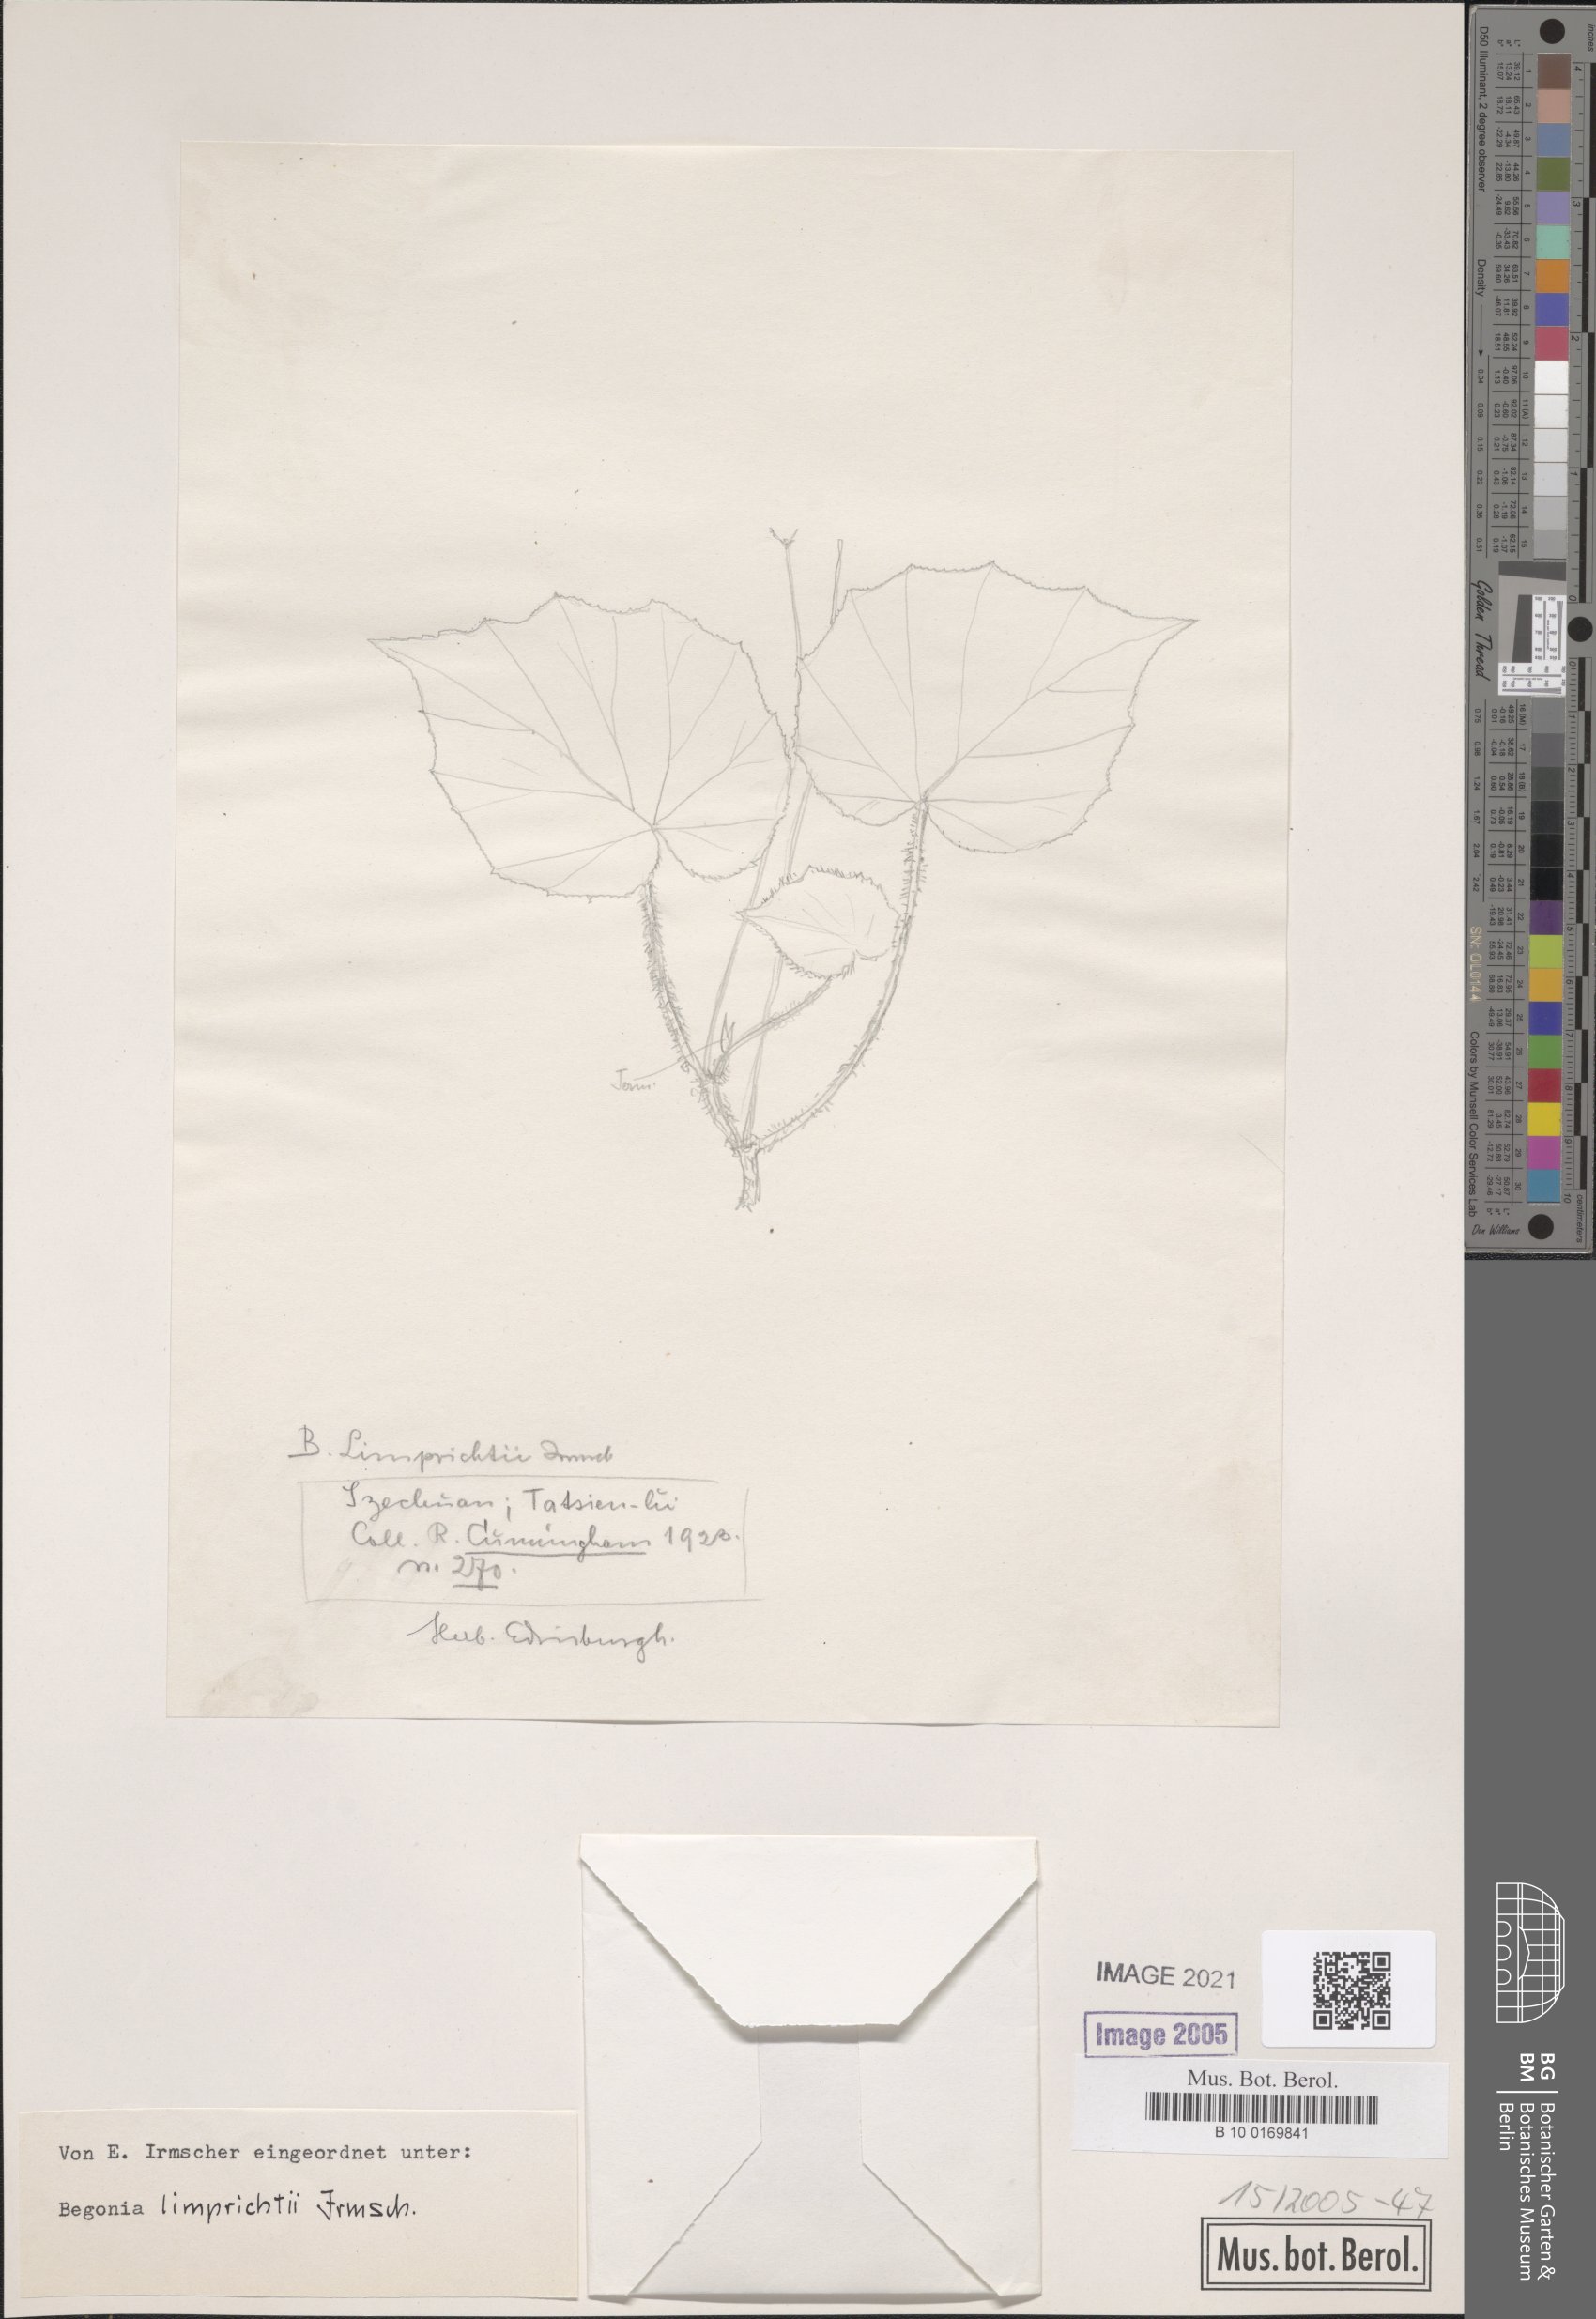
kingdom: Plantae
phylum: Tracheophyta
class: Magnoliopsida
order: Cucurbitales
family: Begoniaceae
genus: Begonia
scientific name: Begonia limprichtii
